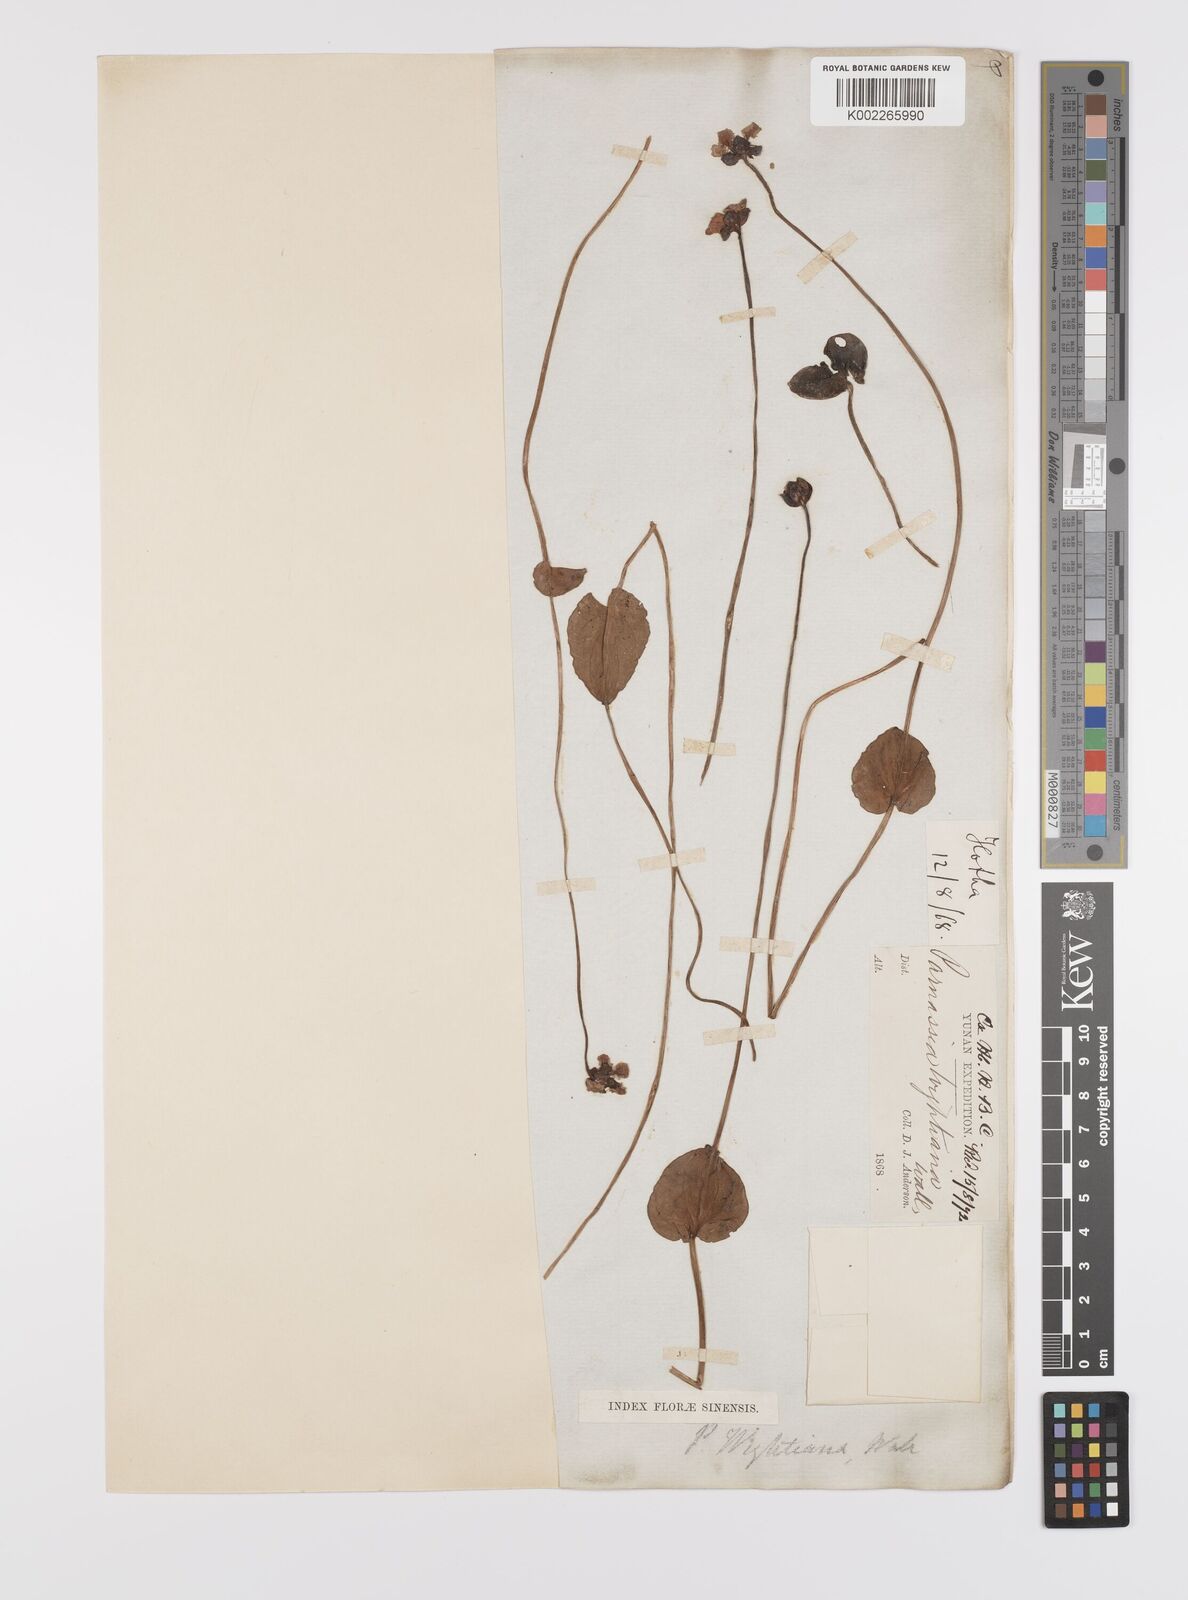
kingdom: Plantae
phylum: Tracheophyta
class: Magnoliopsida
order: Celastrales
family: Parnassiaceae
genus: Parnassia
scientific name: Parnassia wightiana
